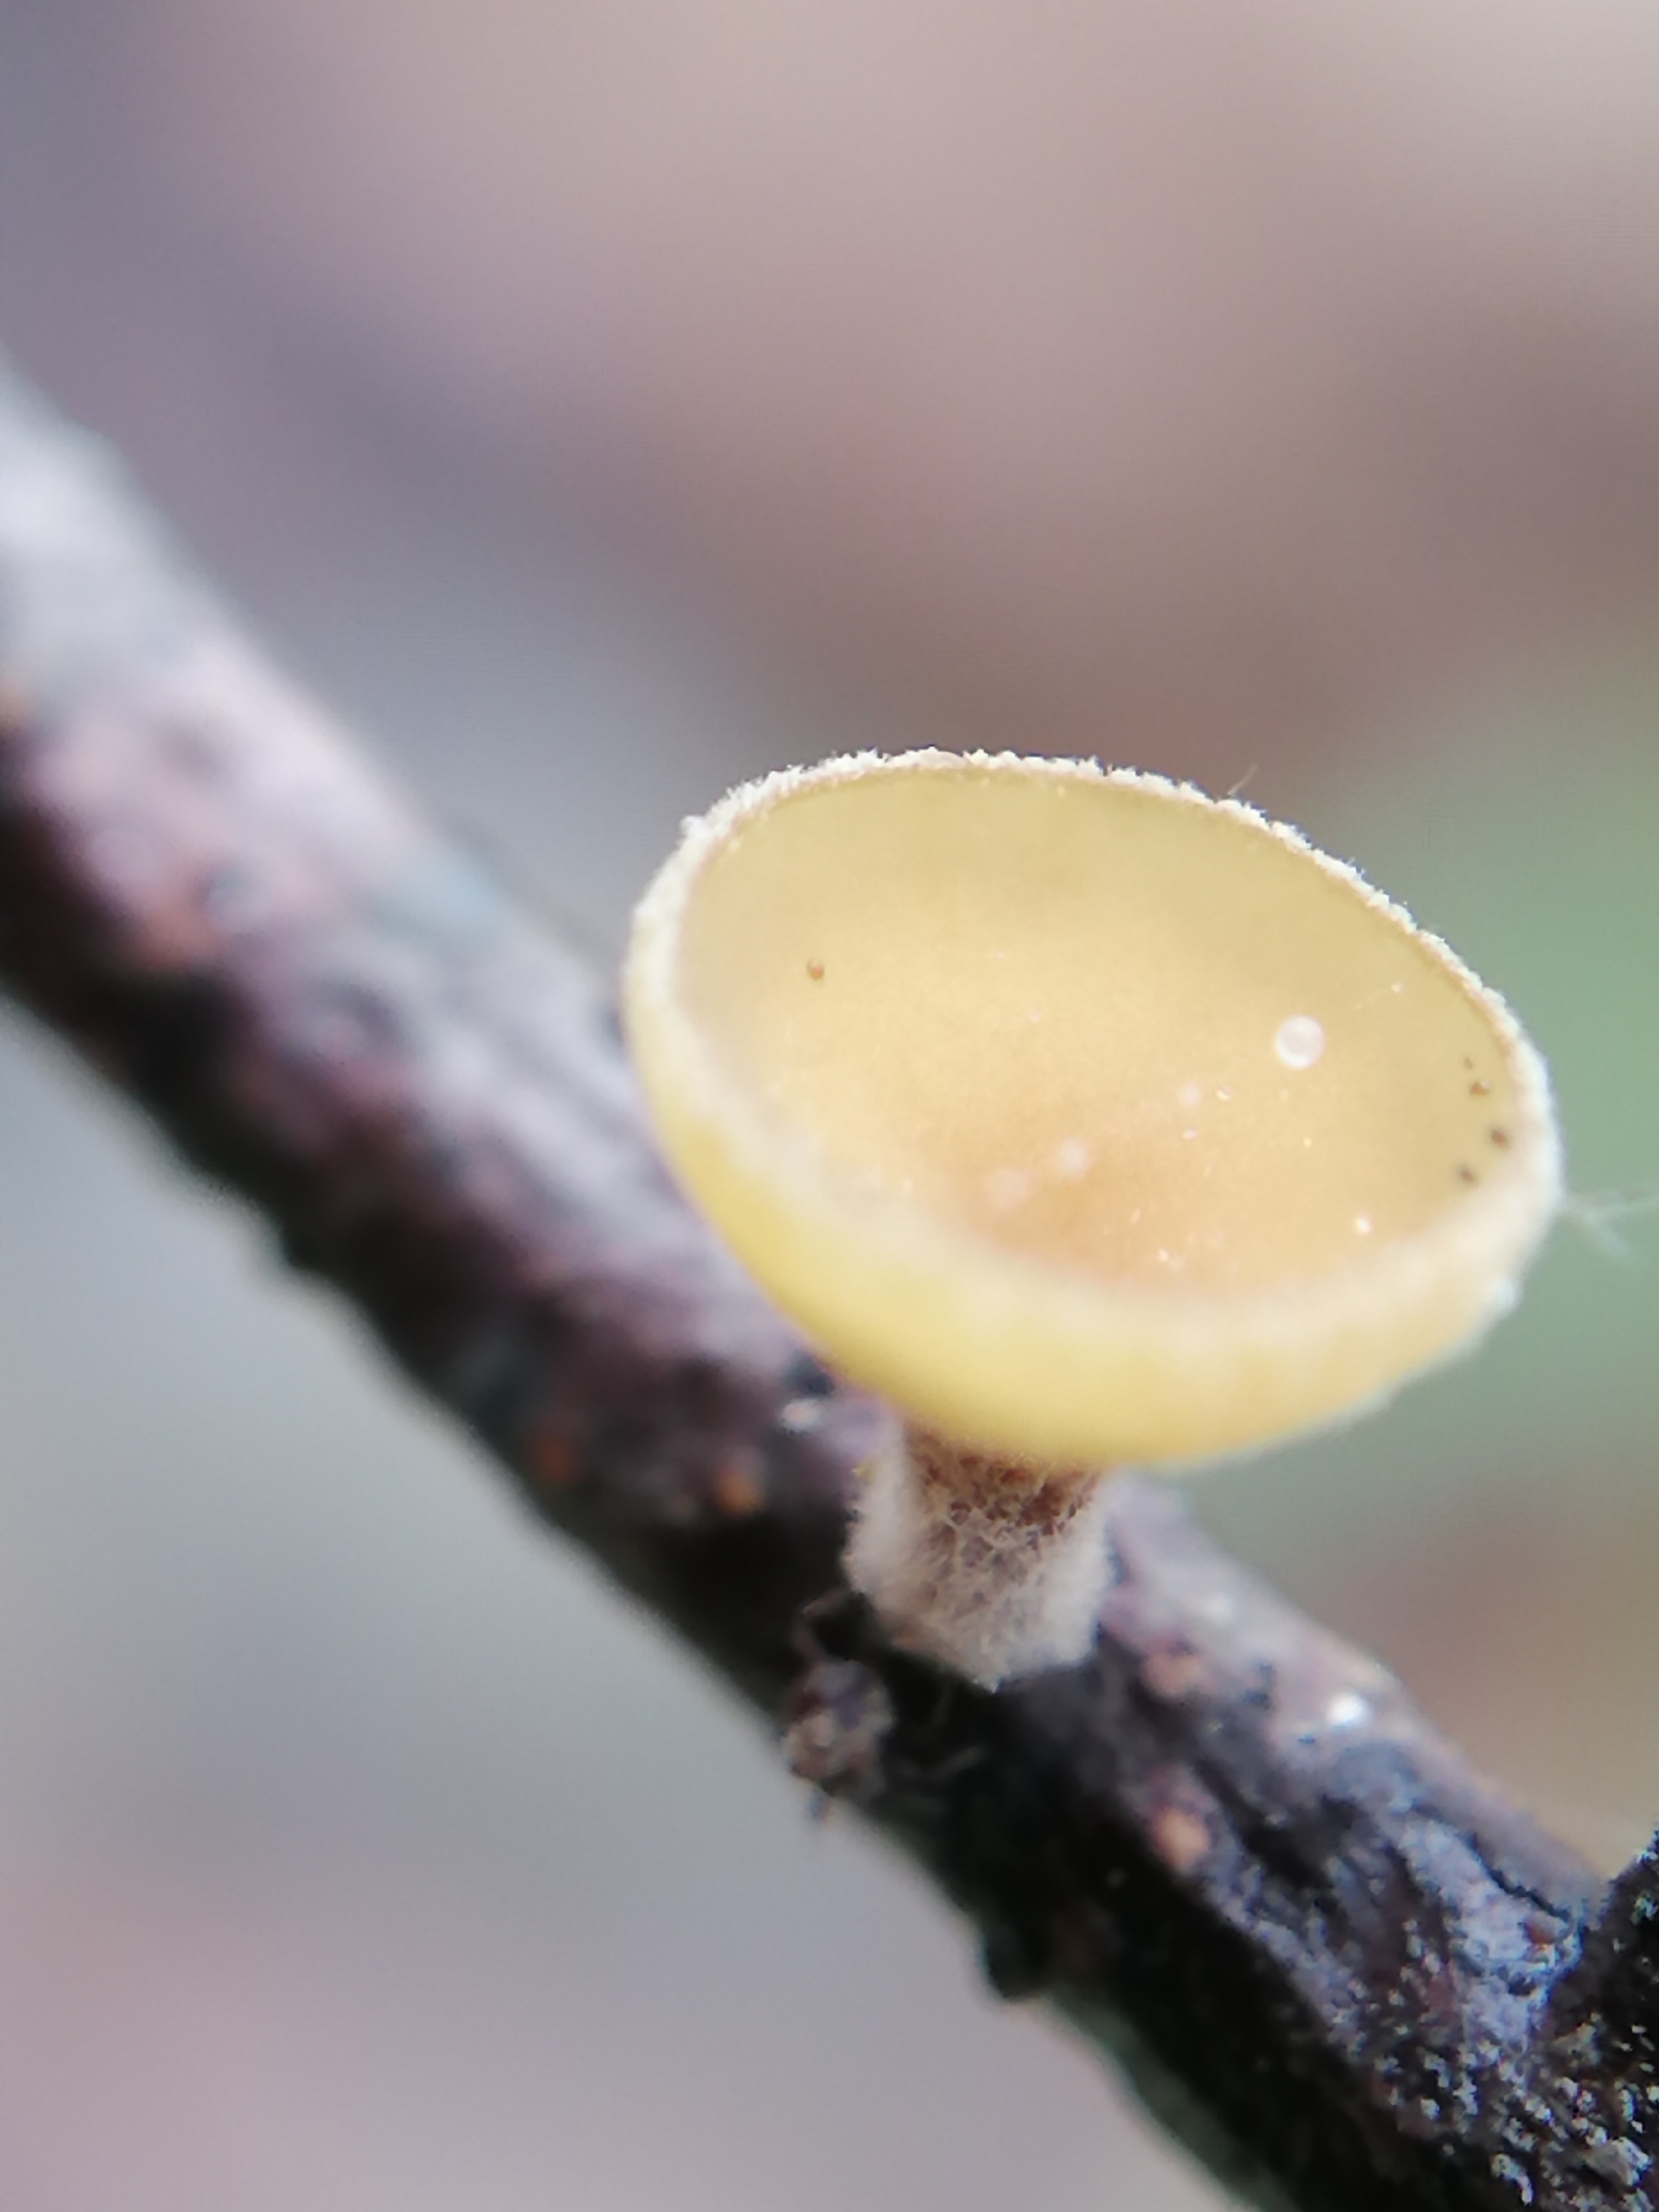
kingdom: Fungi
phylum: Ascomycota
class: Leotiomycetes
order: Helotiales
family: Rutstroemiaceae
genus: Rutstroemia
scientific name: Rutstroemia
